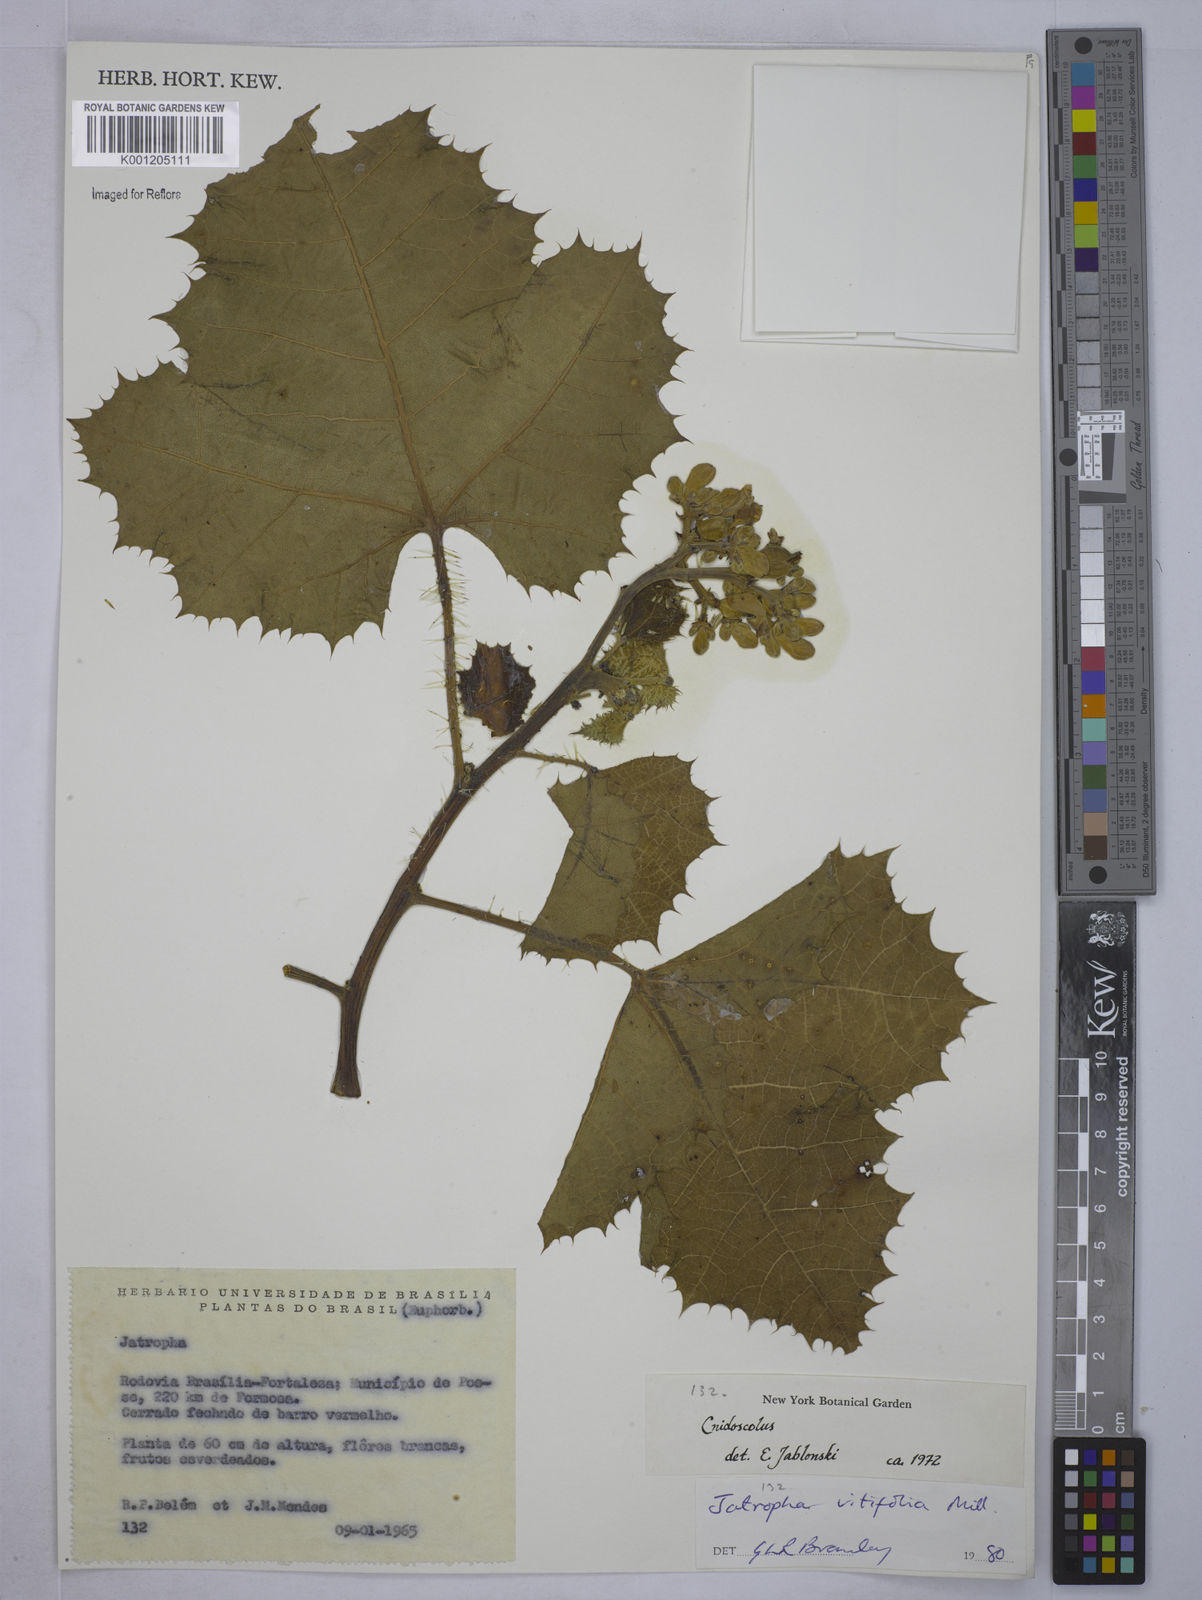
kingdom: Plantae
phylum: Tracheophyta
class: Magnoliopsida
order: Malpighiales
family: Euphorbiaceae
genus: Cnidoscolus
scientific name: Cnidoscolus vitifolius
